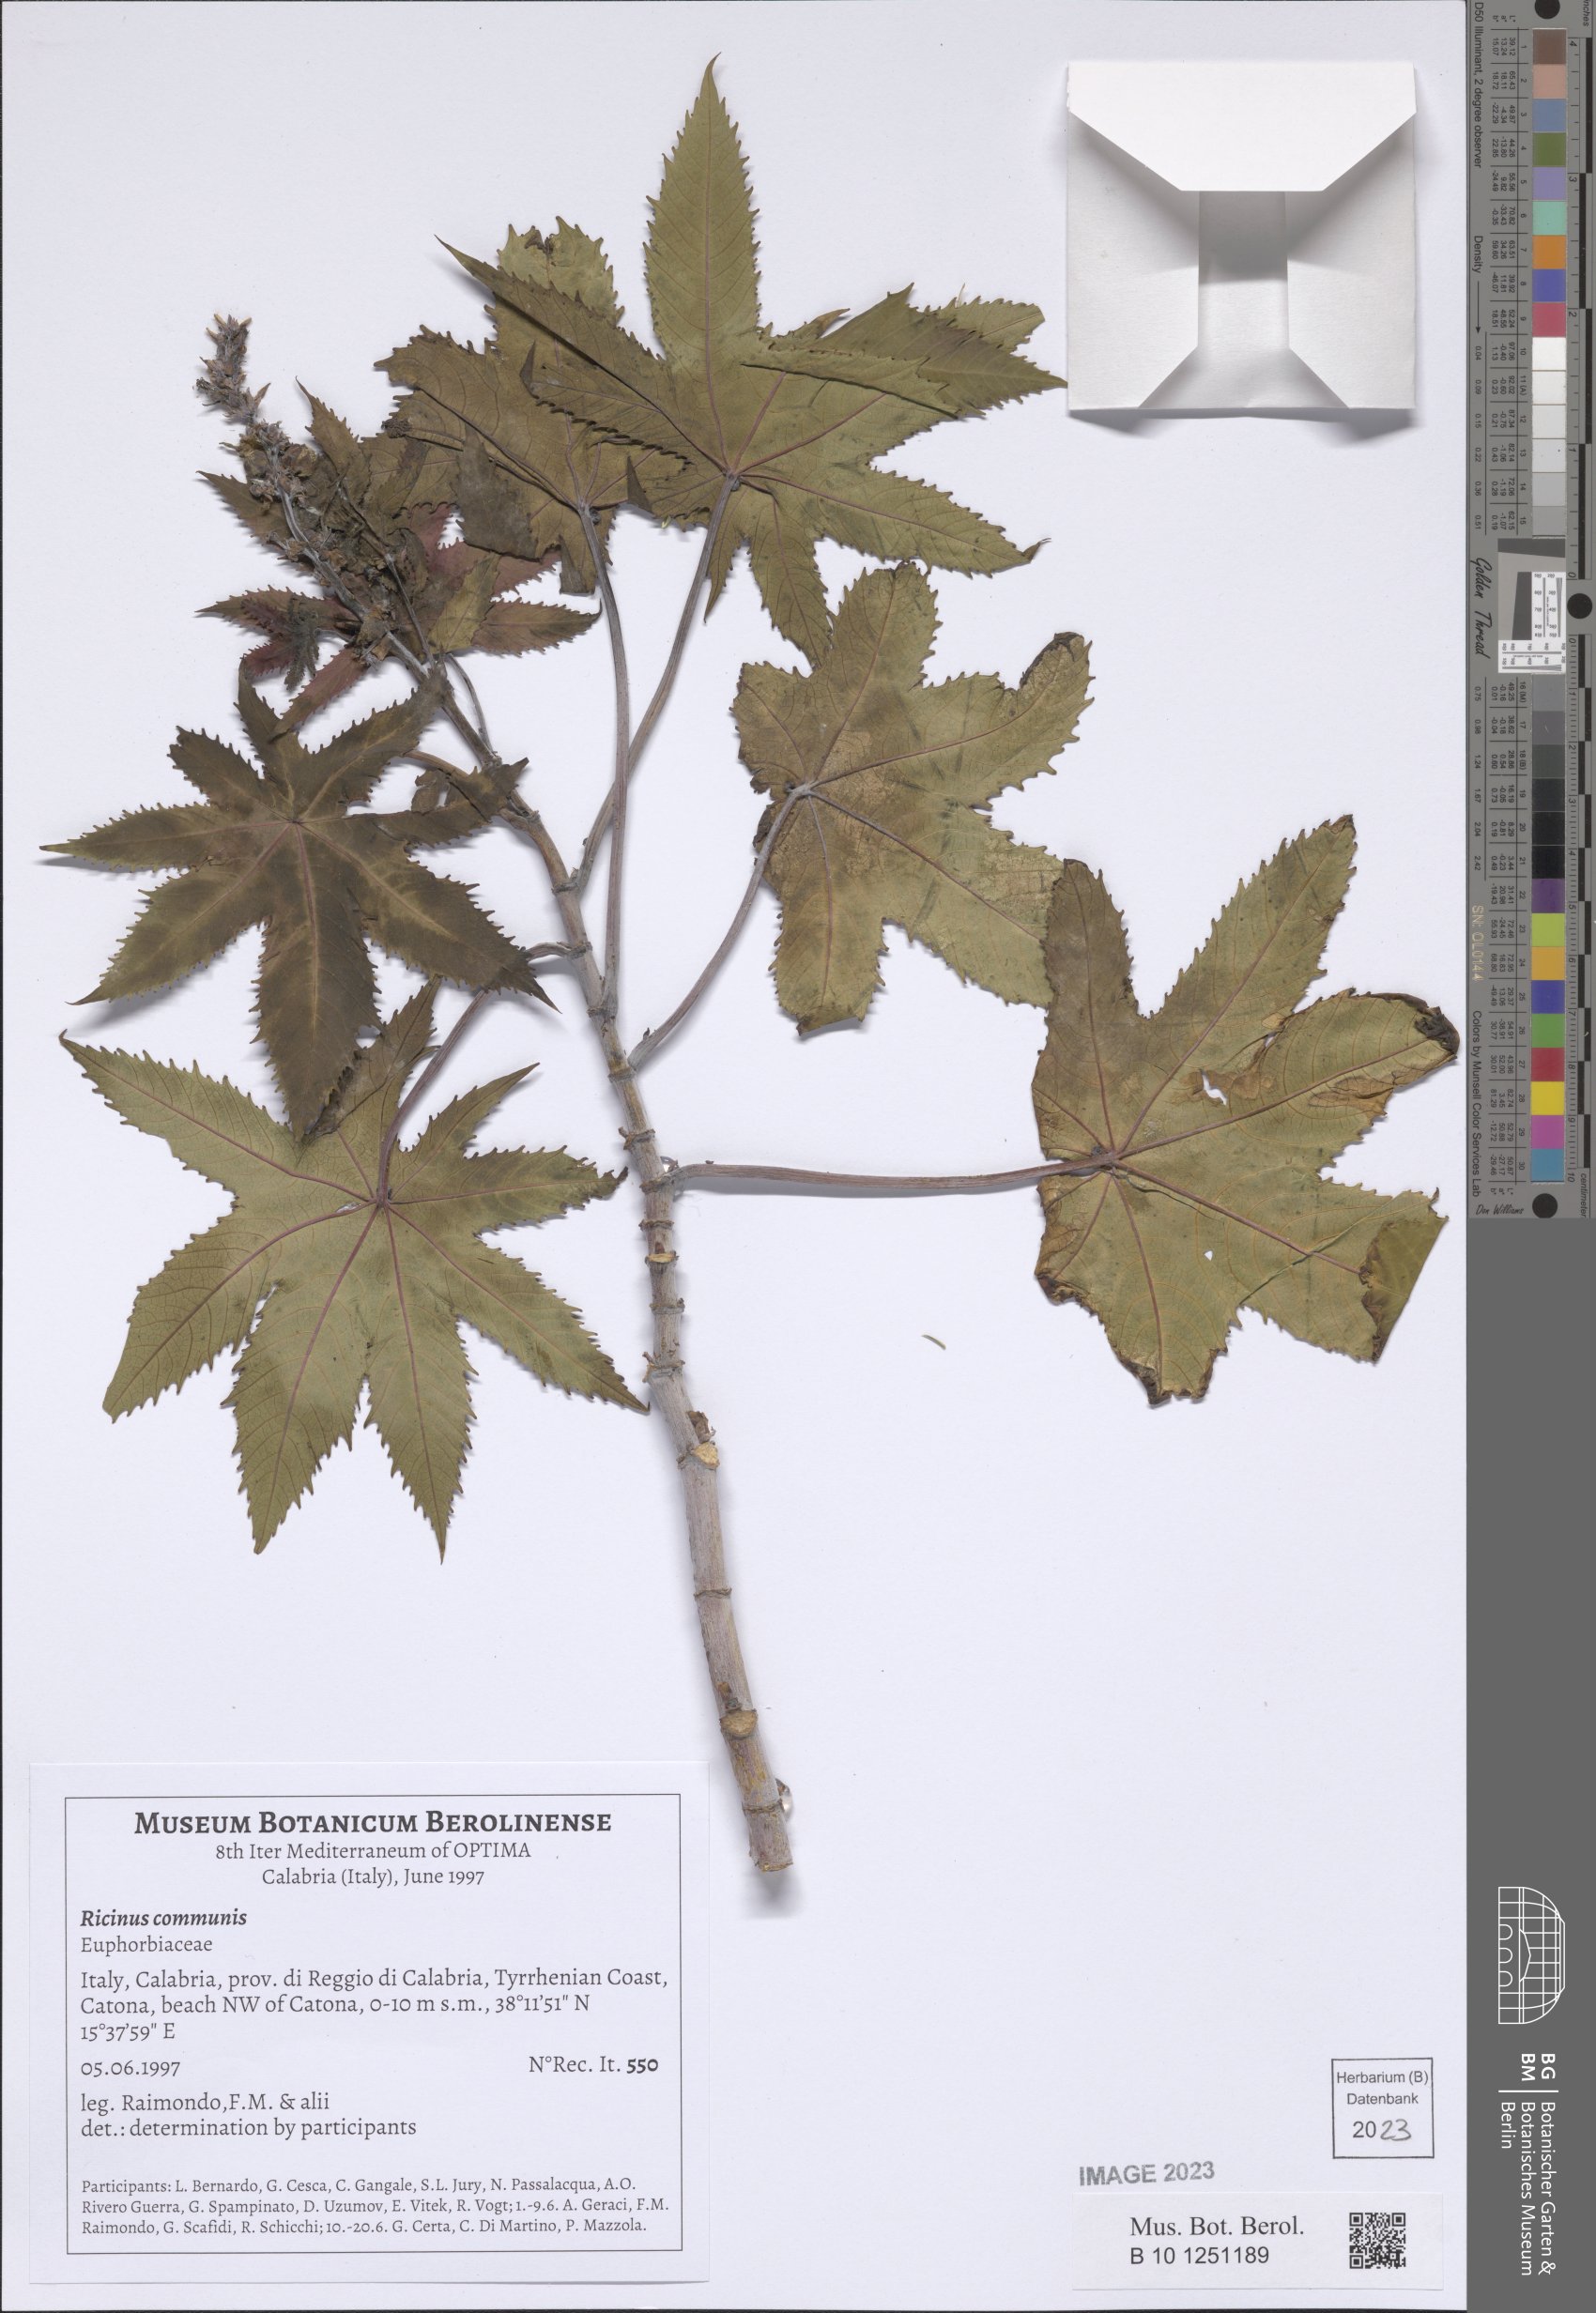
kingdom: Plantae
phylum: Tracheophyta
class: Magnoliopsida
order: Malpighiales
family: Euphorbiaceae
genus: Ricinus
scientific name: Ricinus communis
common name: Castor-oil-plant
